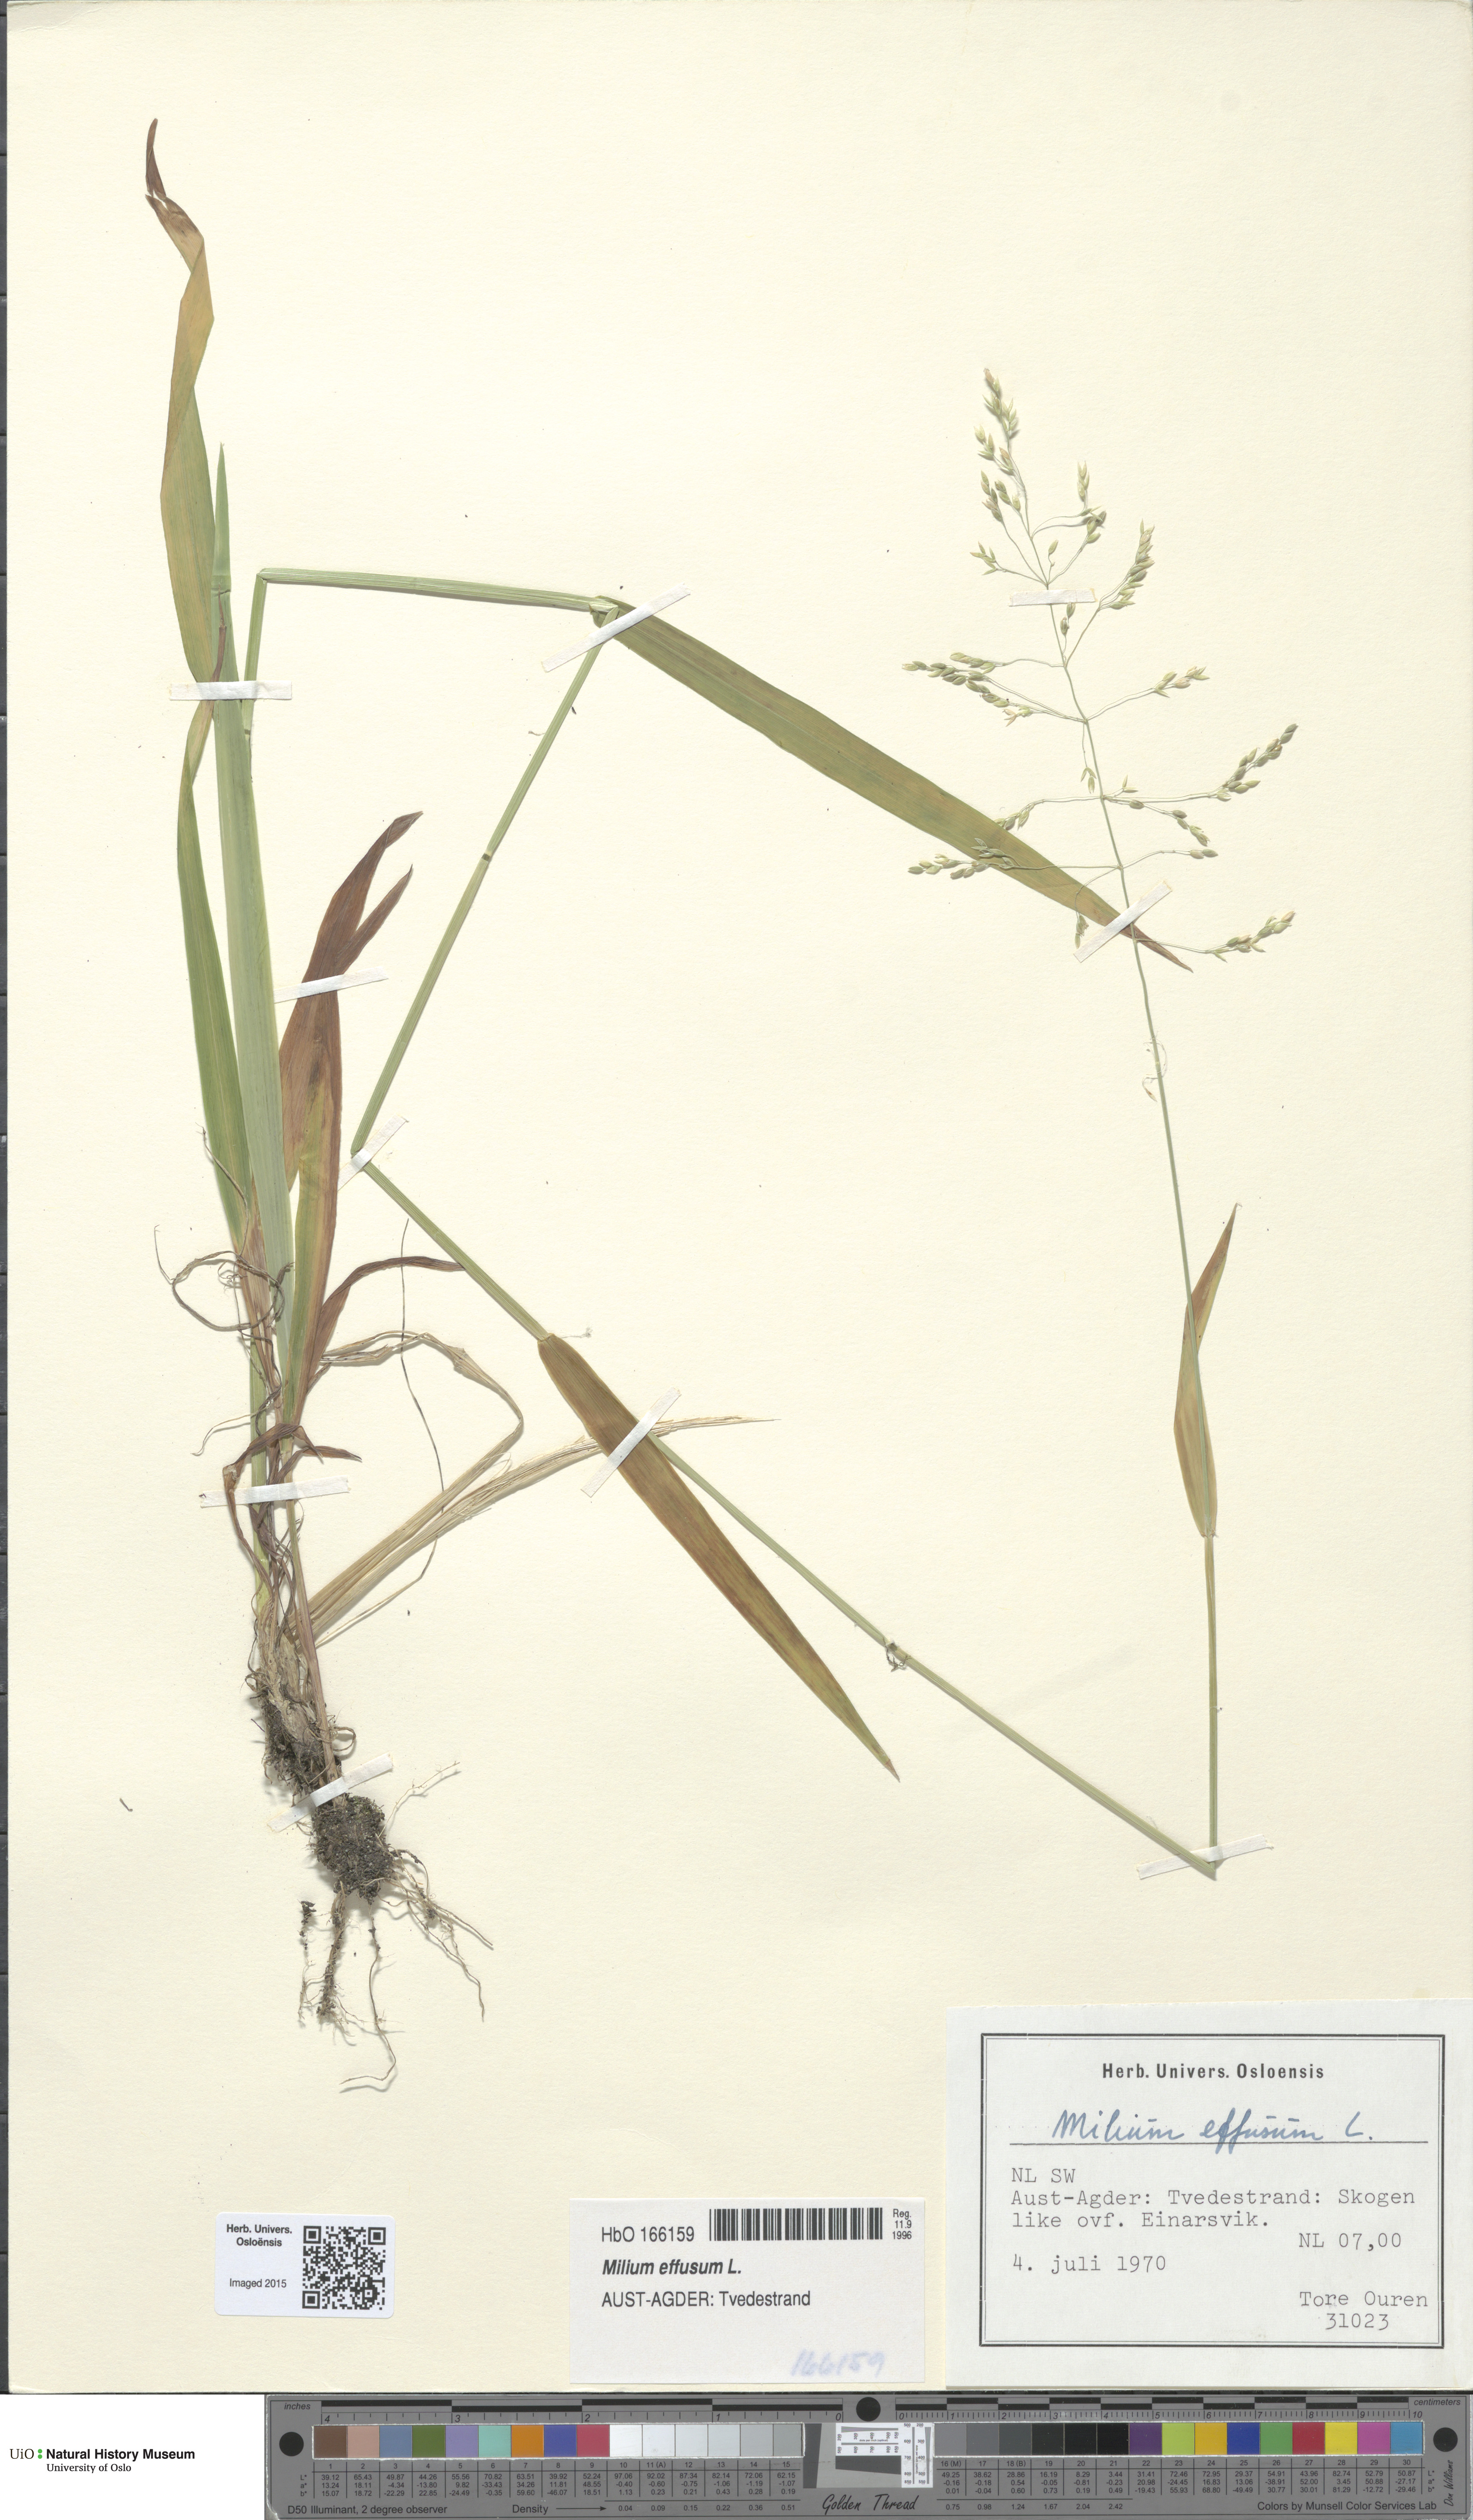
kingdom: Plantae
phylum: Tracheophyta
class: Liliopsida
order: Poales
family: Poaceae
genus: Milium
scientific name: Milium effusum
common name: Wood millet
